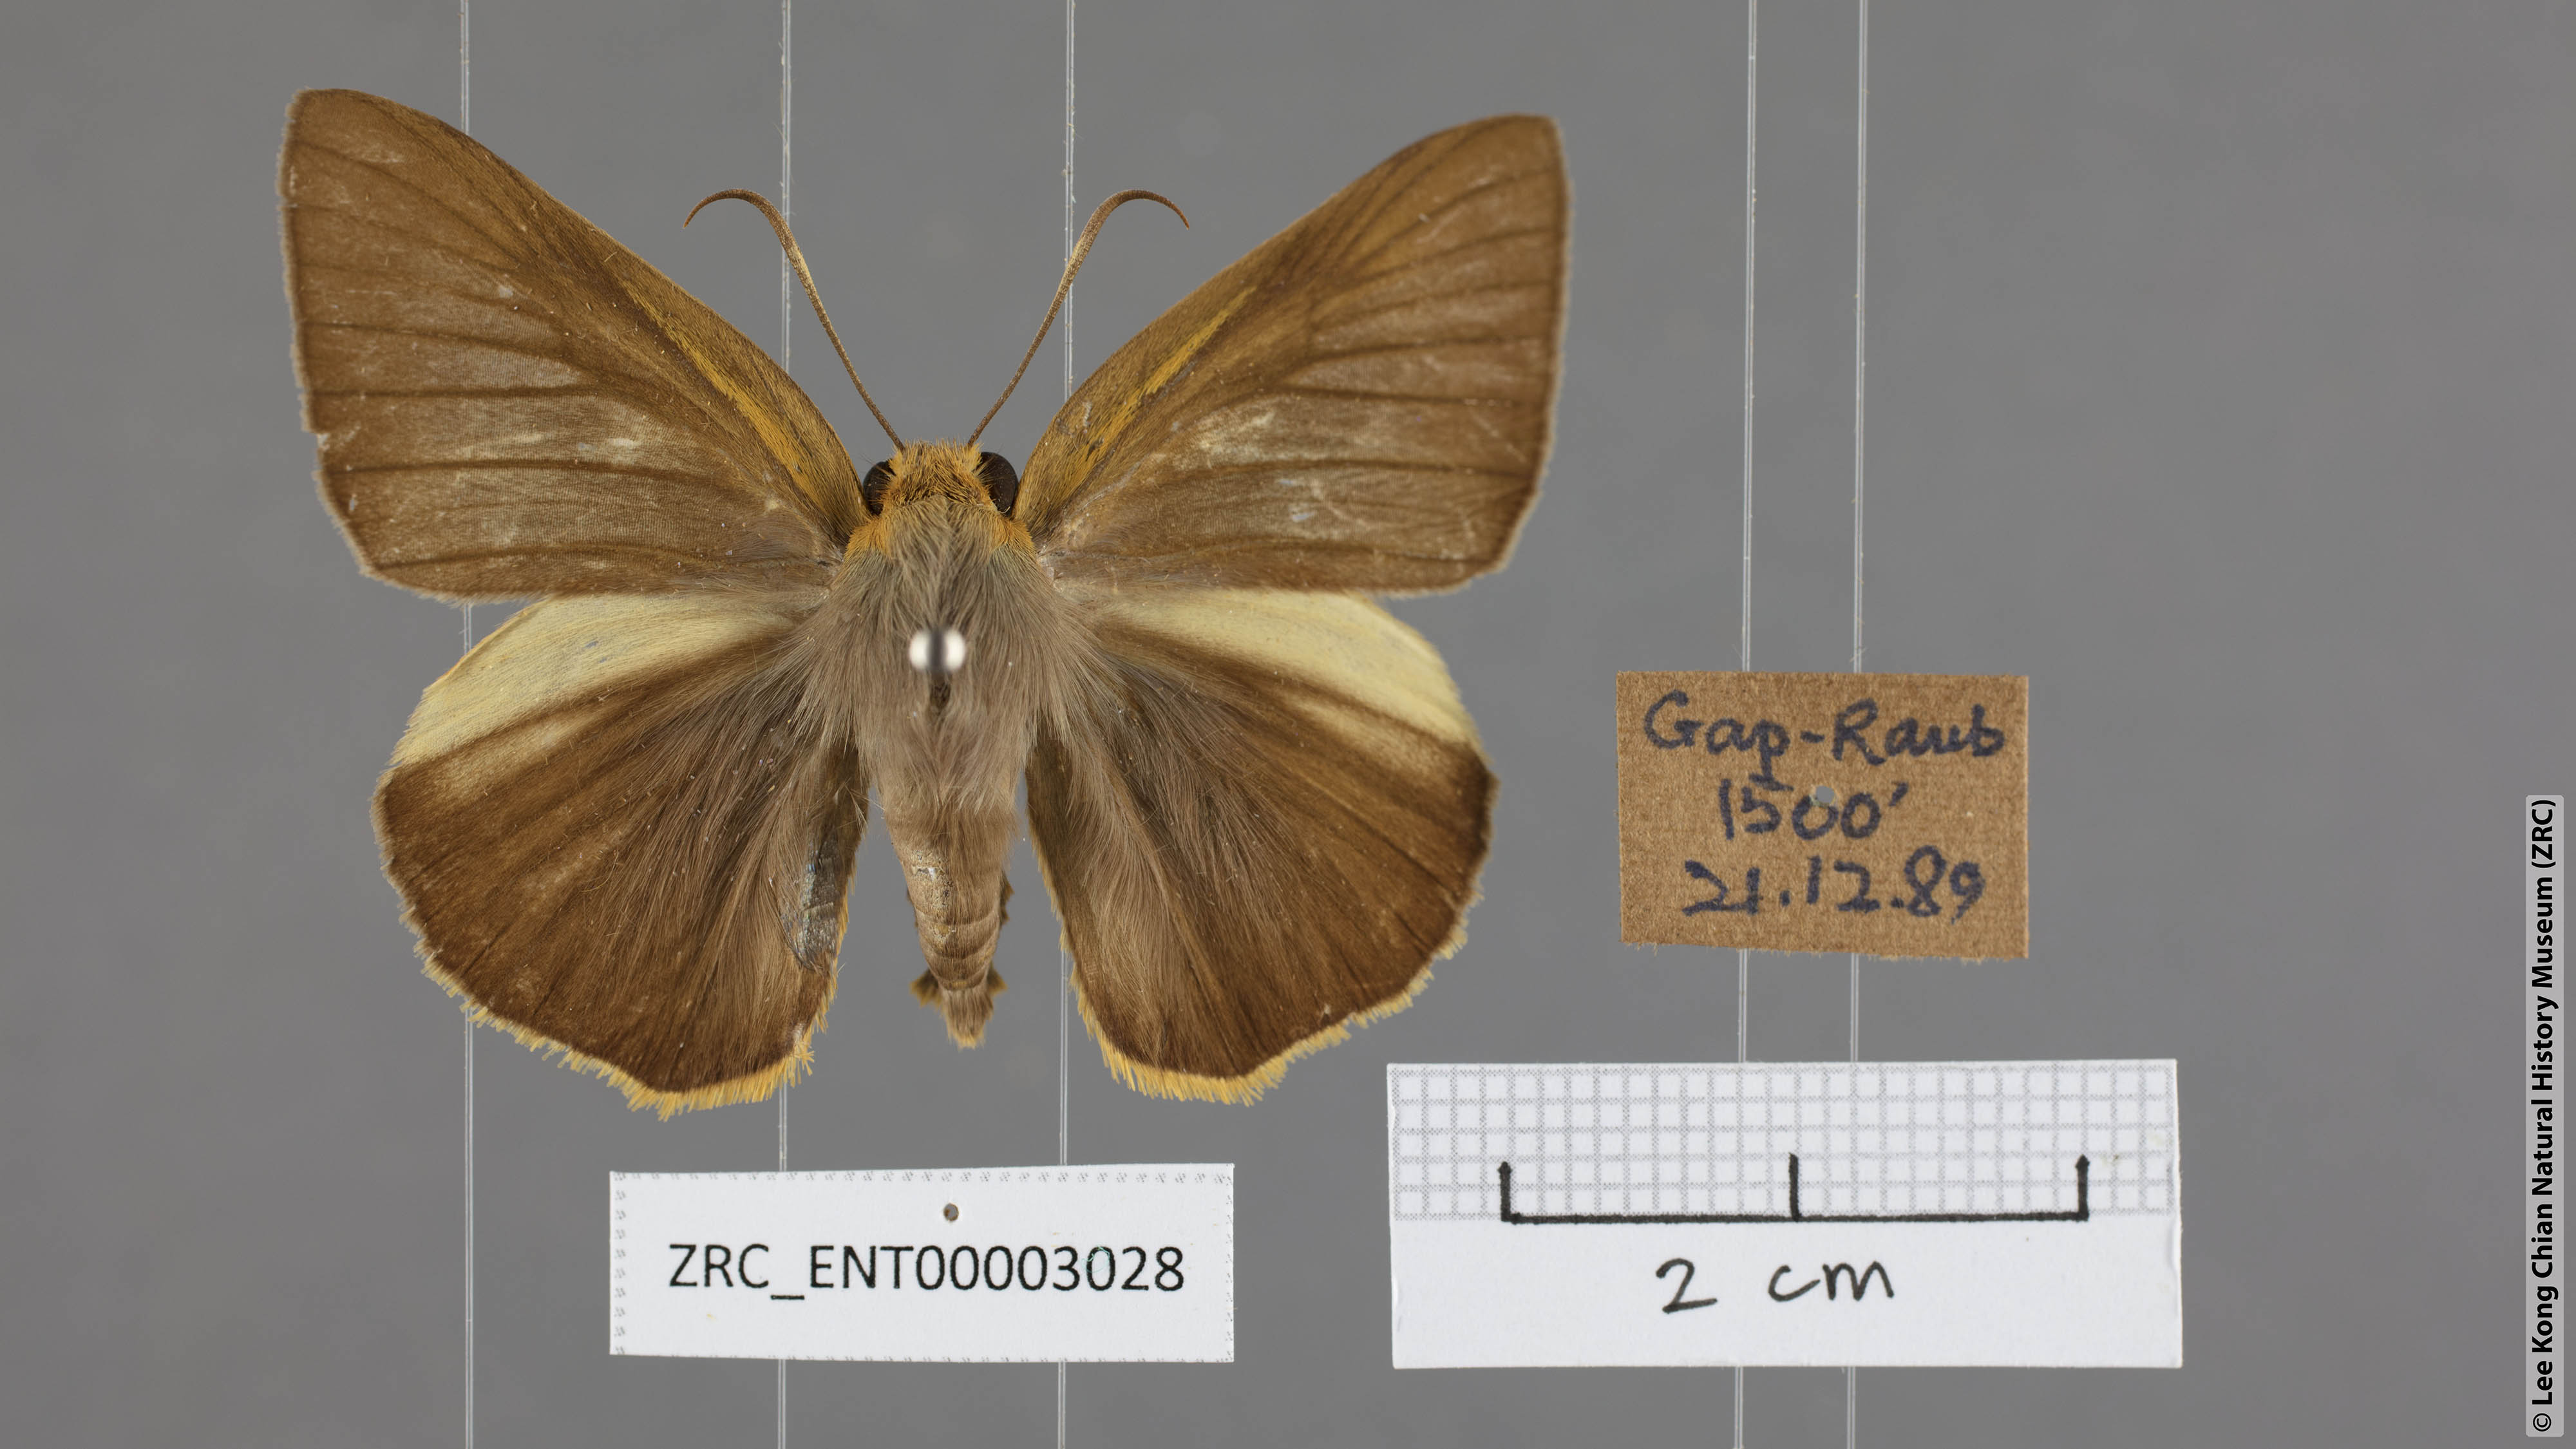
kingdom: Animalia
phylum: Arthropoda
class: Insecta
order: Lepidoptera
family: Hesperiidae
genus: Bibasis
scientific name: Bibasis Burara harisa
